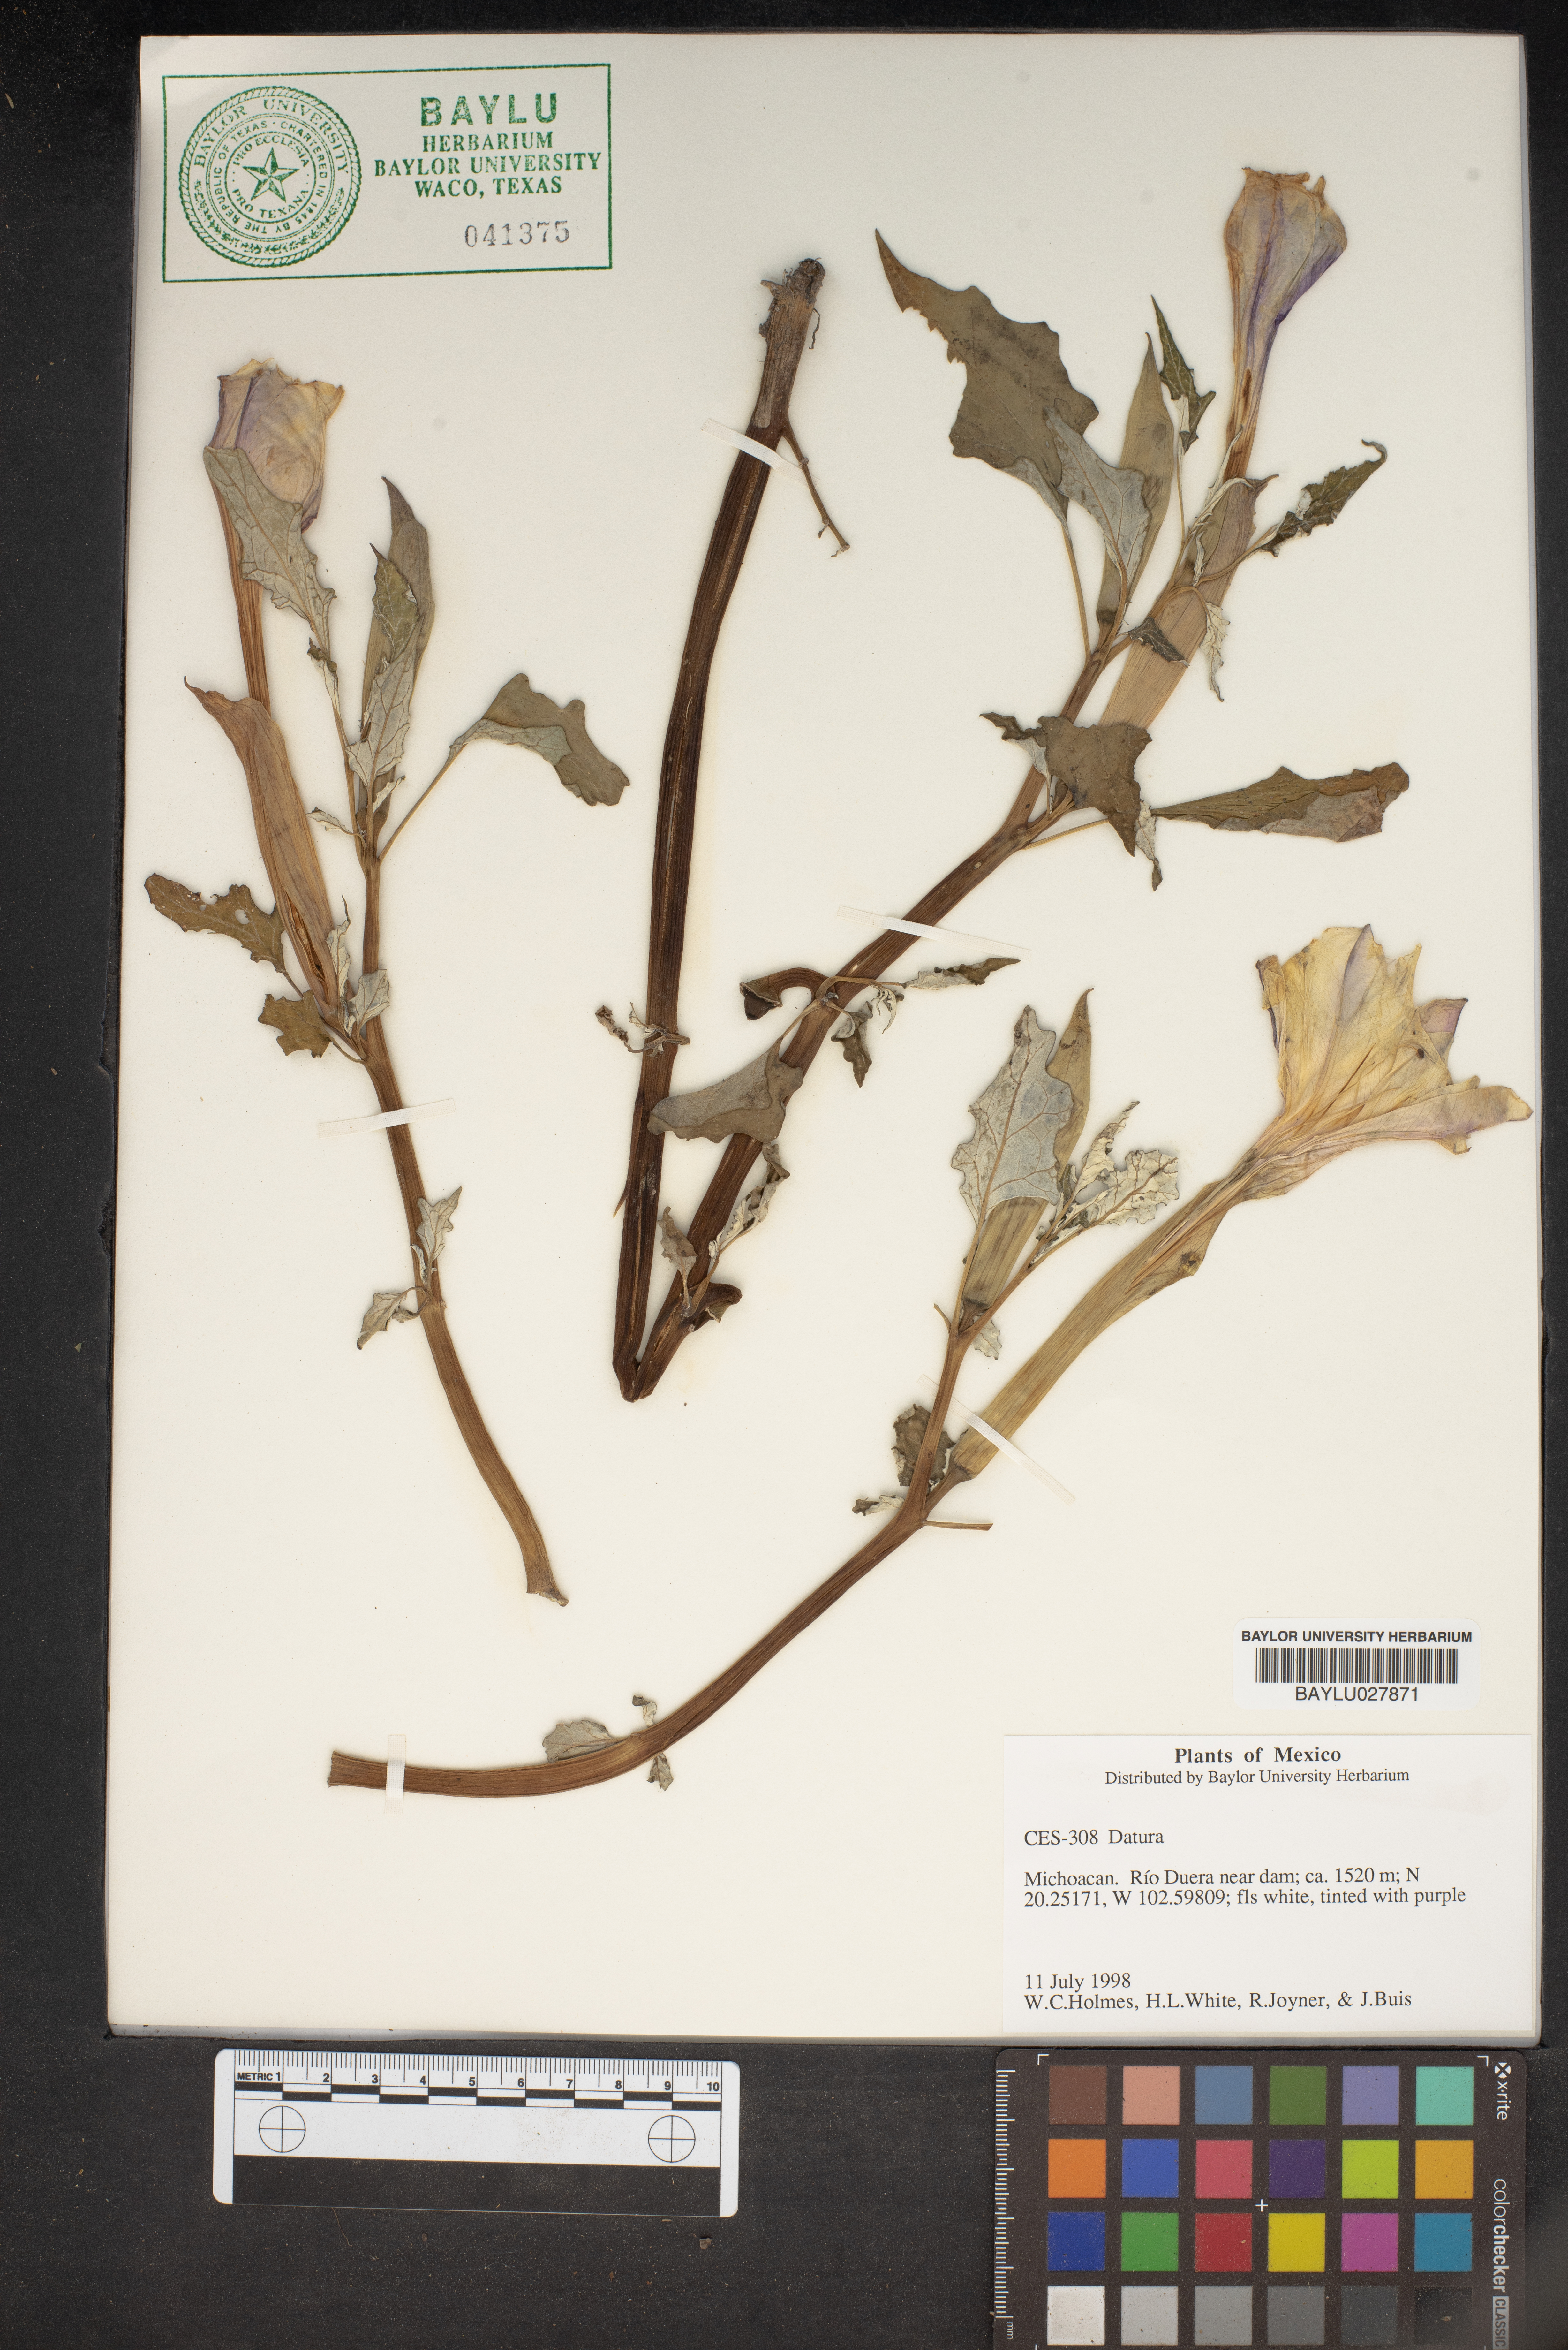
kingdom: Plantae
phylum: Tracheophyta
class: Magnoliopsida
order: Solanales
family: Solanaceae
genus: Datura
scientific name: Datura
